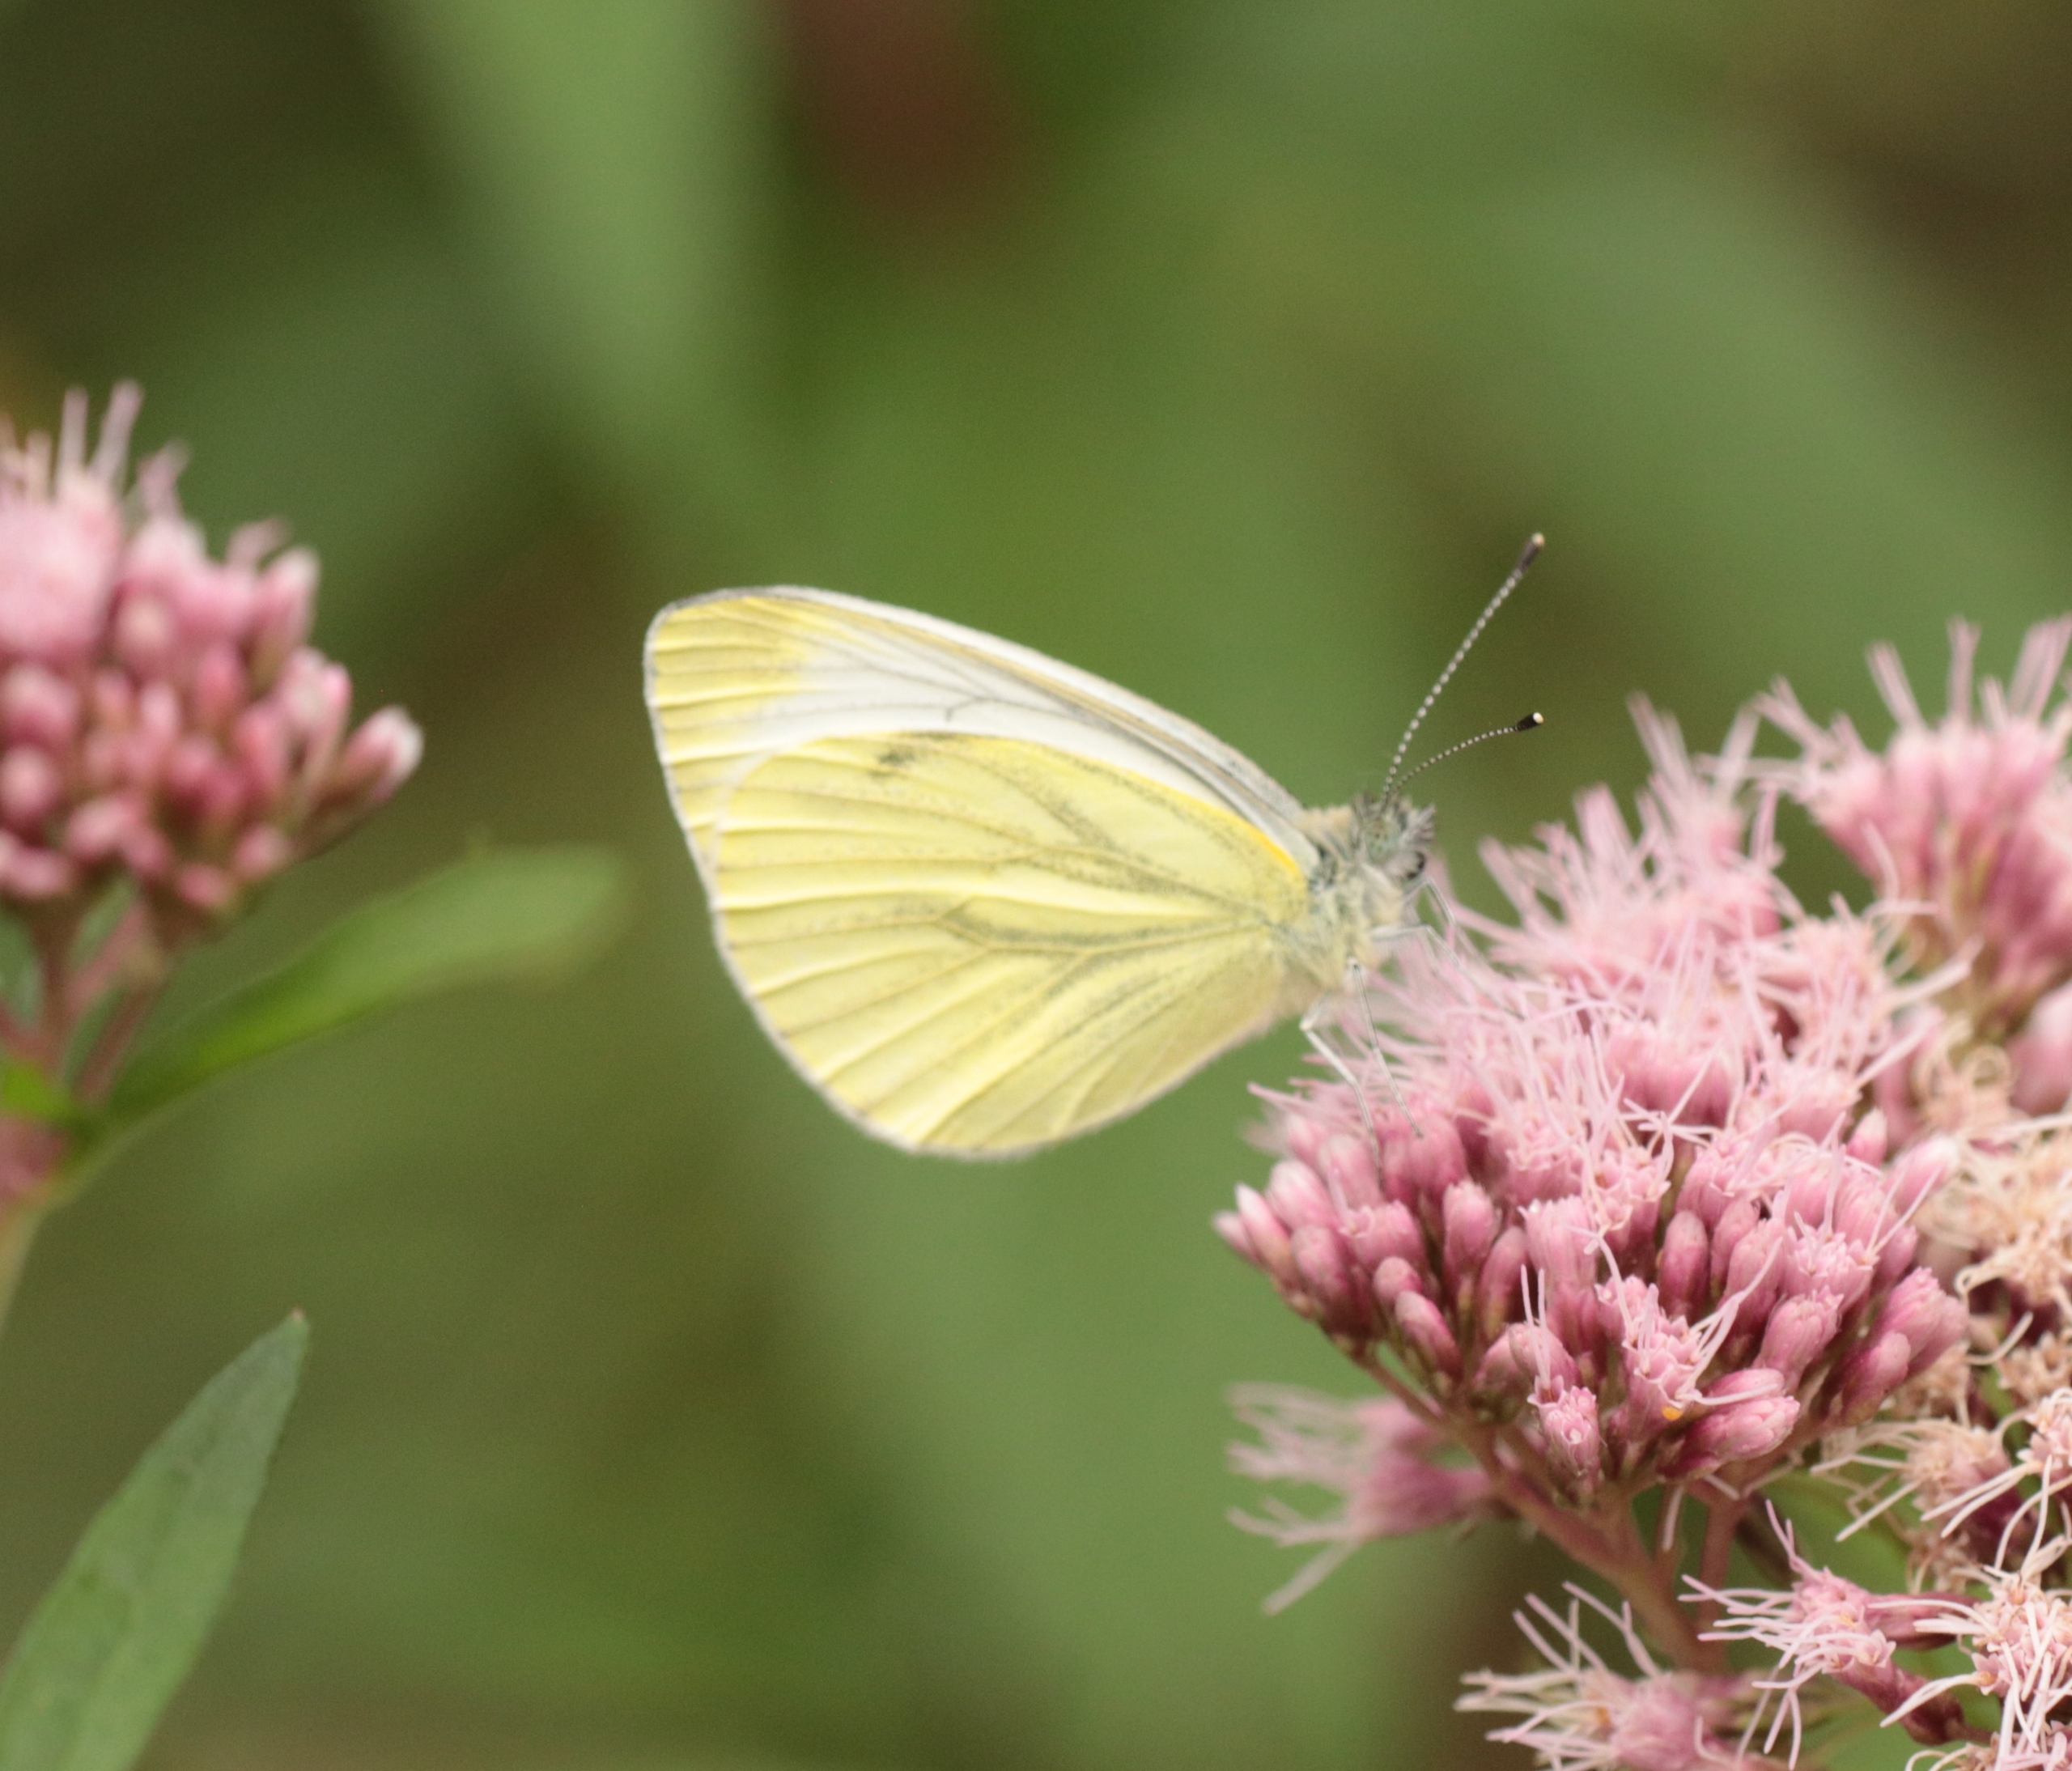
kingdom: Animalia
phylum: Arthropoda
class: Insecta
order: Lepidoptera
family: Pieridae
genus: Pieris
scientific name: Pieris napi
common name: Grønåret kålsommerfugl
